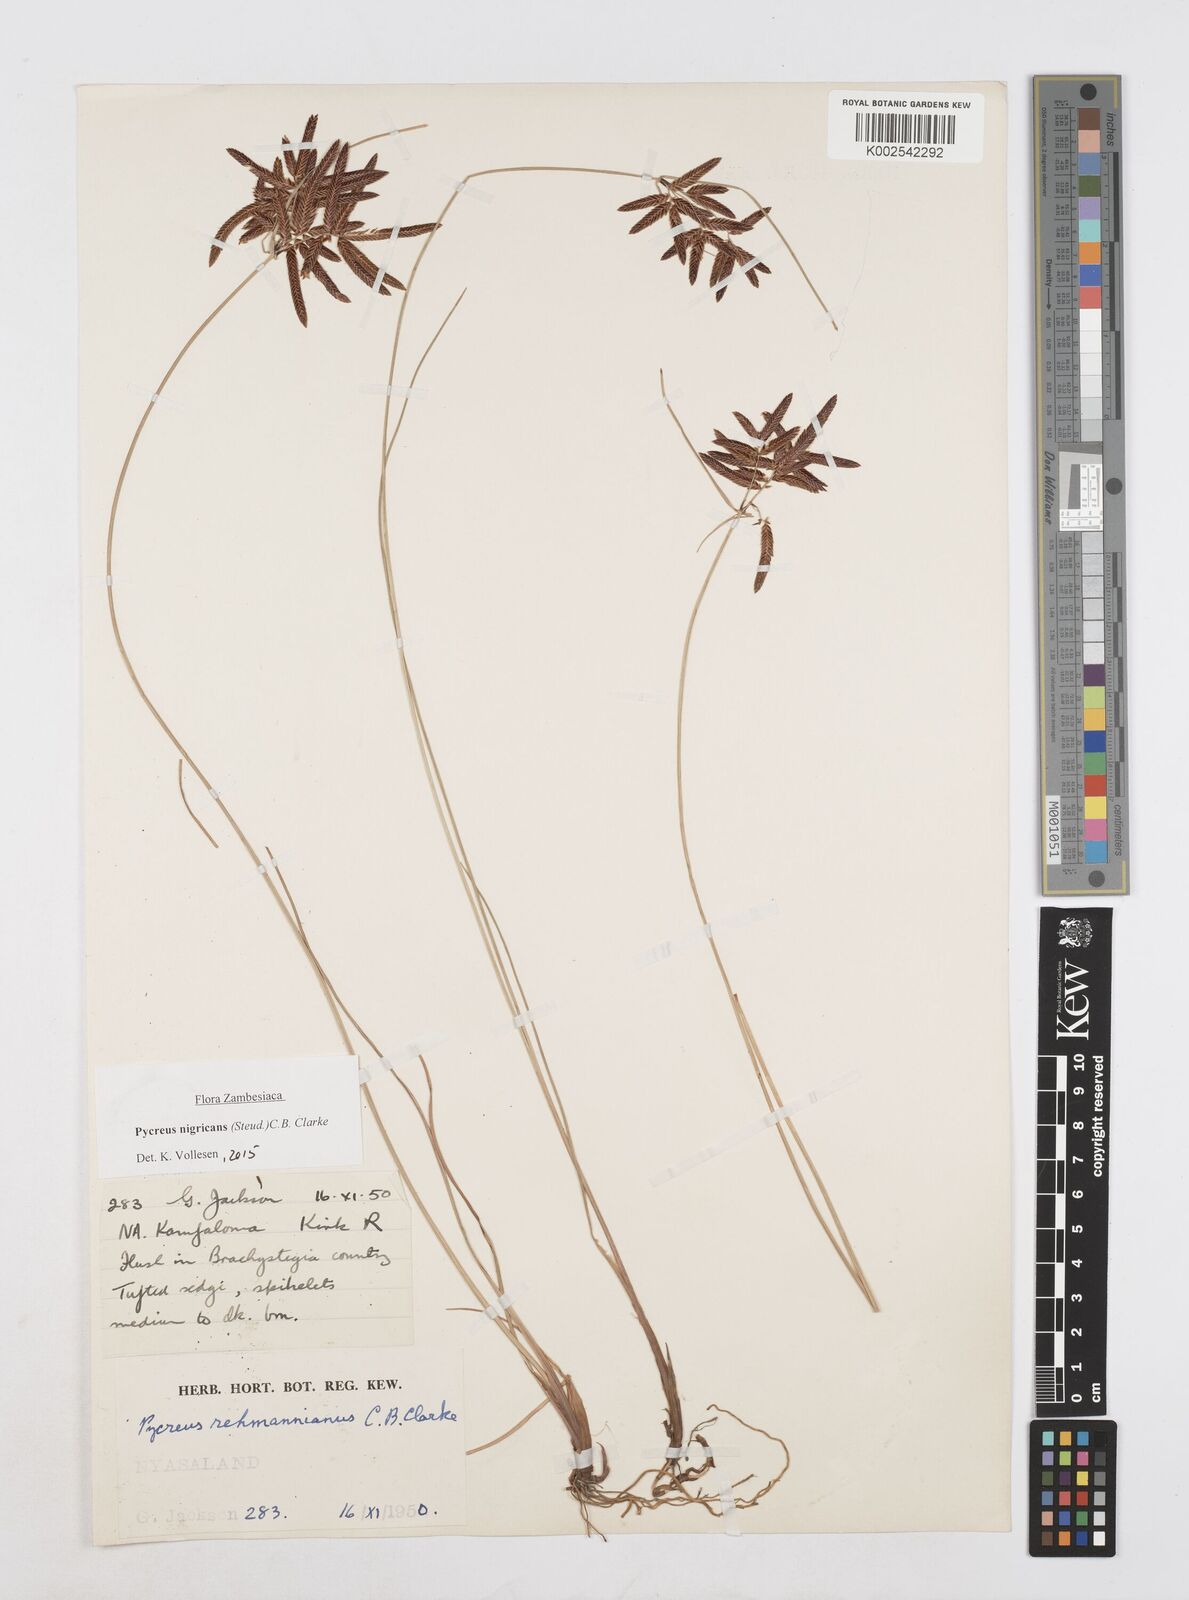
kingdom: Plantae
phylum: Tracheophyta
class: Liliopsida
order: Poales
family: Cyperaceae
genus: Cyperus
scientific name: Cyperus nigricans
